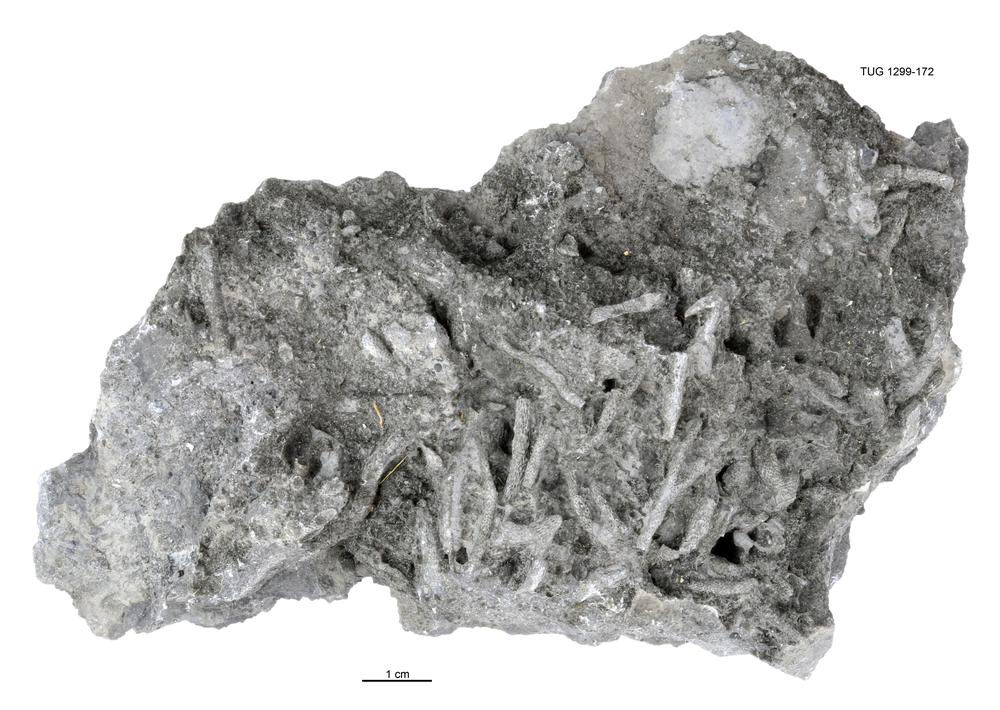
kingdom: Animalia
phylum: Bryozoa
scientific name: Bryozoa
